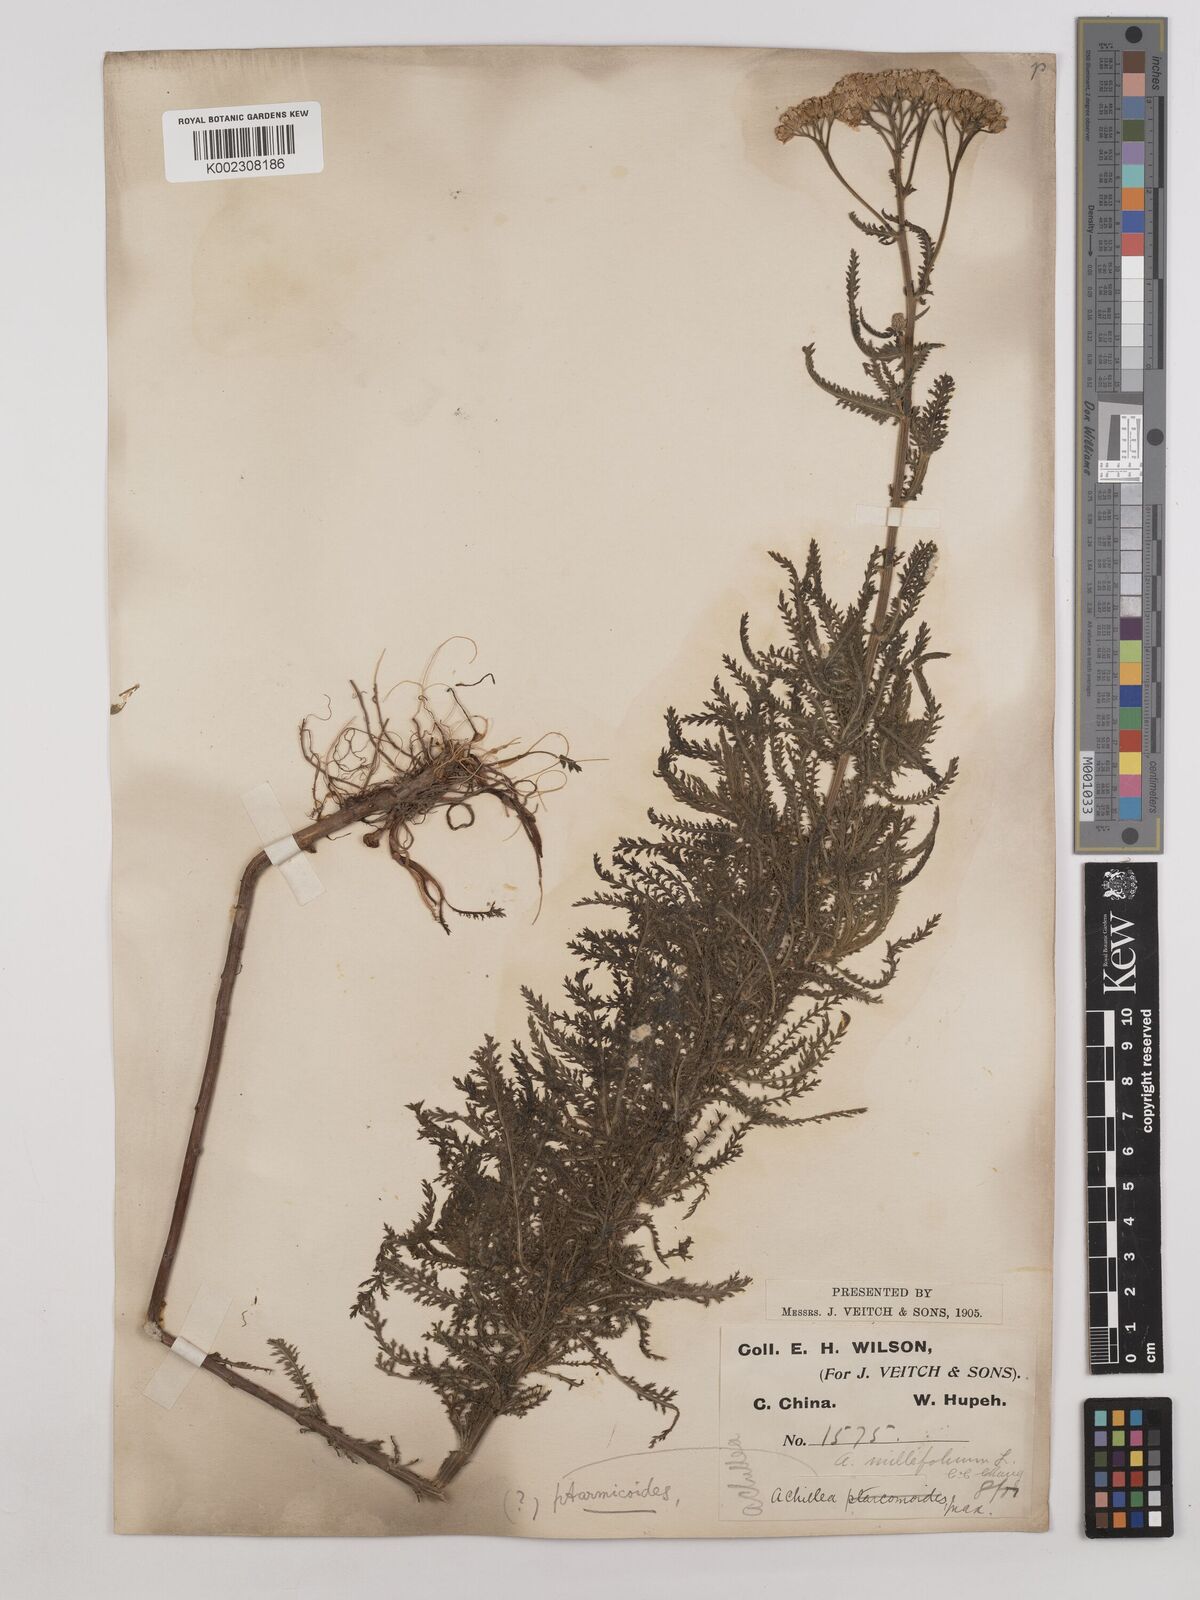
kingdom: Plantae
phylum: Tracheophyta
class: Magnoliopsida
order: Asterales
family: Asteraceae
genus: Achillea
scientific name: Achillea alpina
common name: Siberian yarrow
